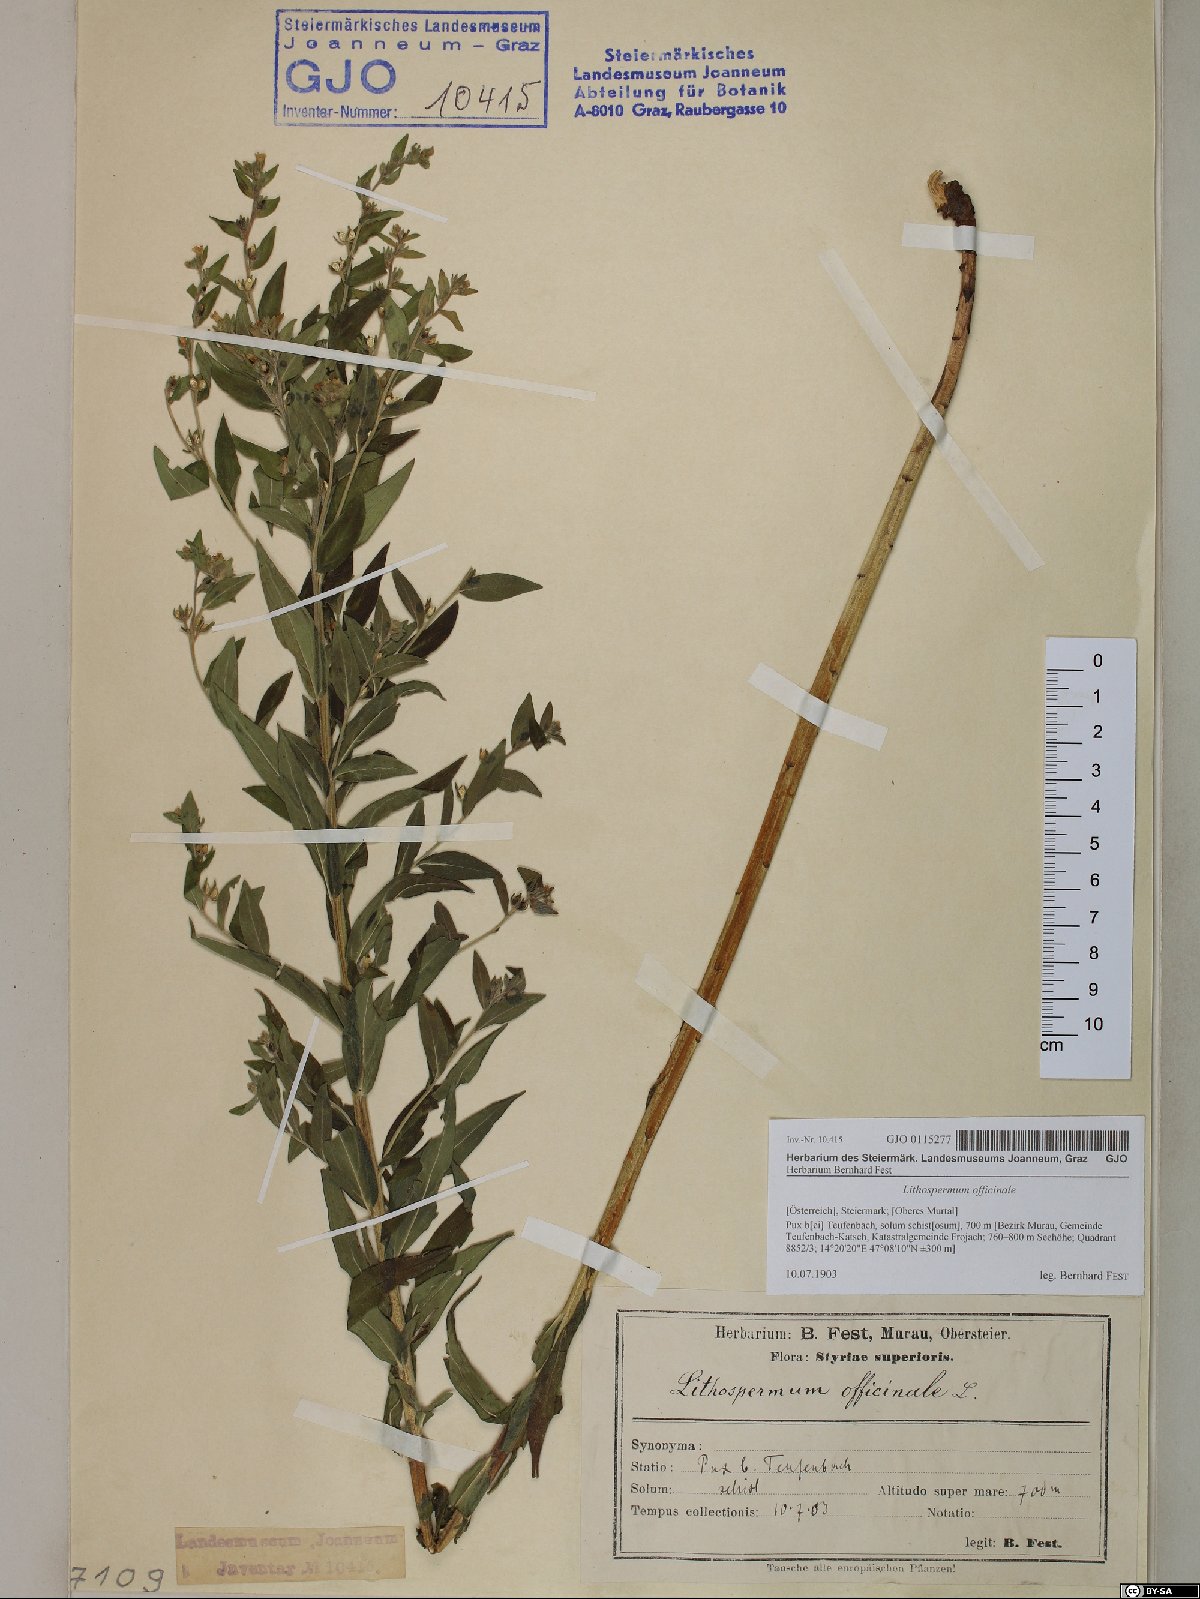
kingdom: Plantae
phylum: Tracheophyta
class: Magnoliopsida
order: Boraginales
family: Boraginaceae
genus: Lithospermum
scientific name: Lithospermum officinale
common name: Common gromwell
